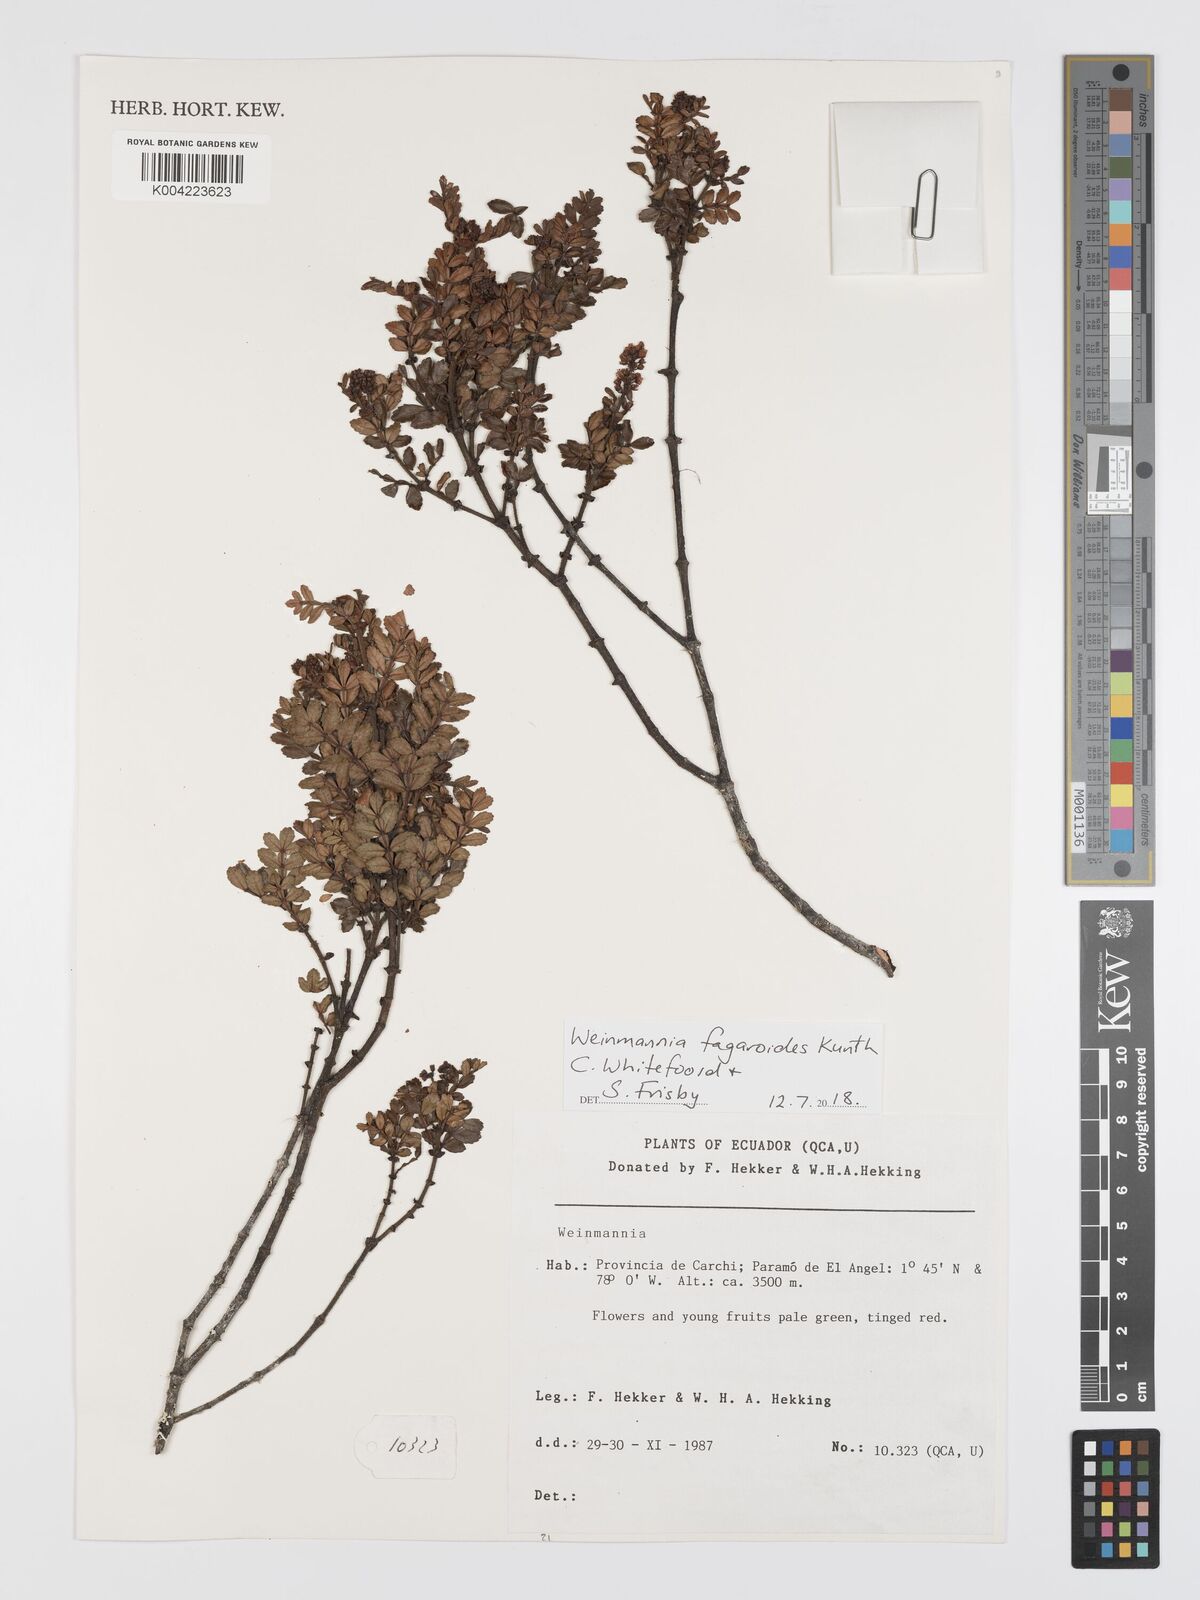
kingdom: Plantae
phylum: Tracheophyta
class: Magnoliopsida
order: Oxalidales
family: Cunoniaceae
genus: Weinmannia
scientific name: Weinmannia fagaroides
